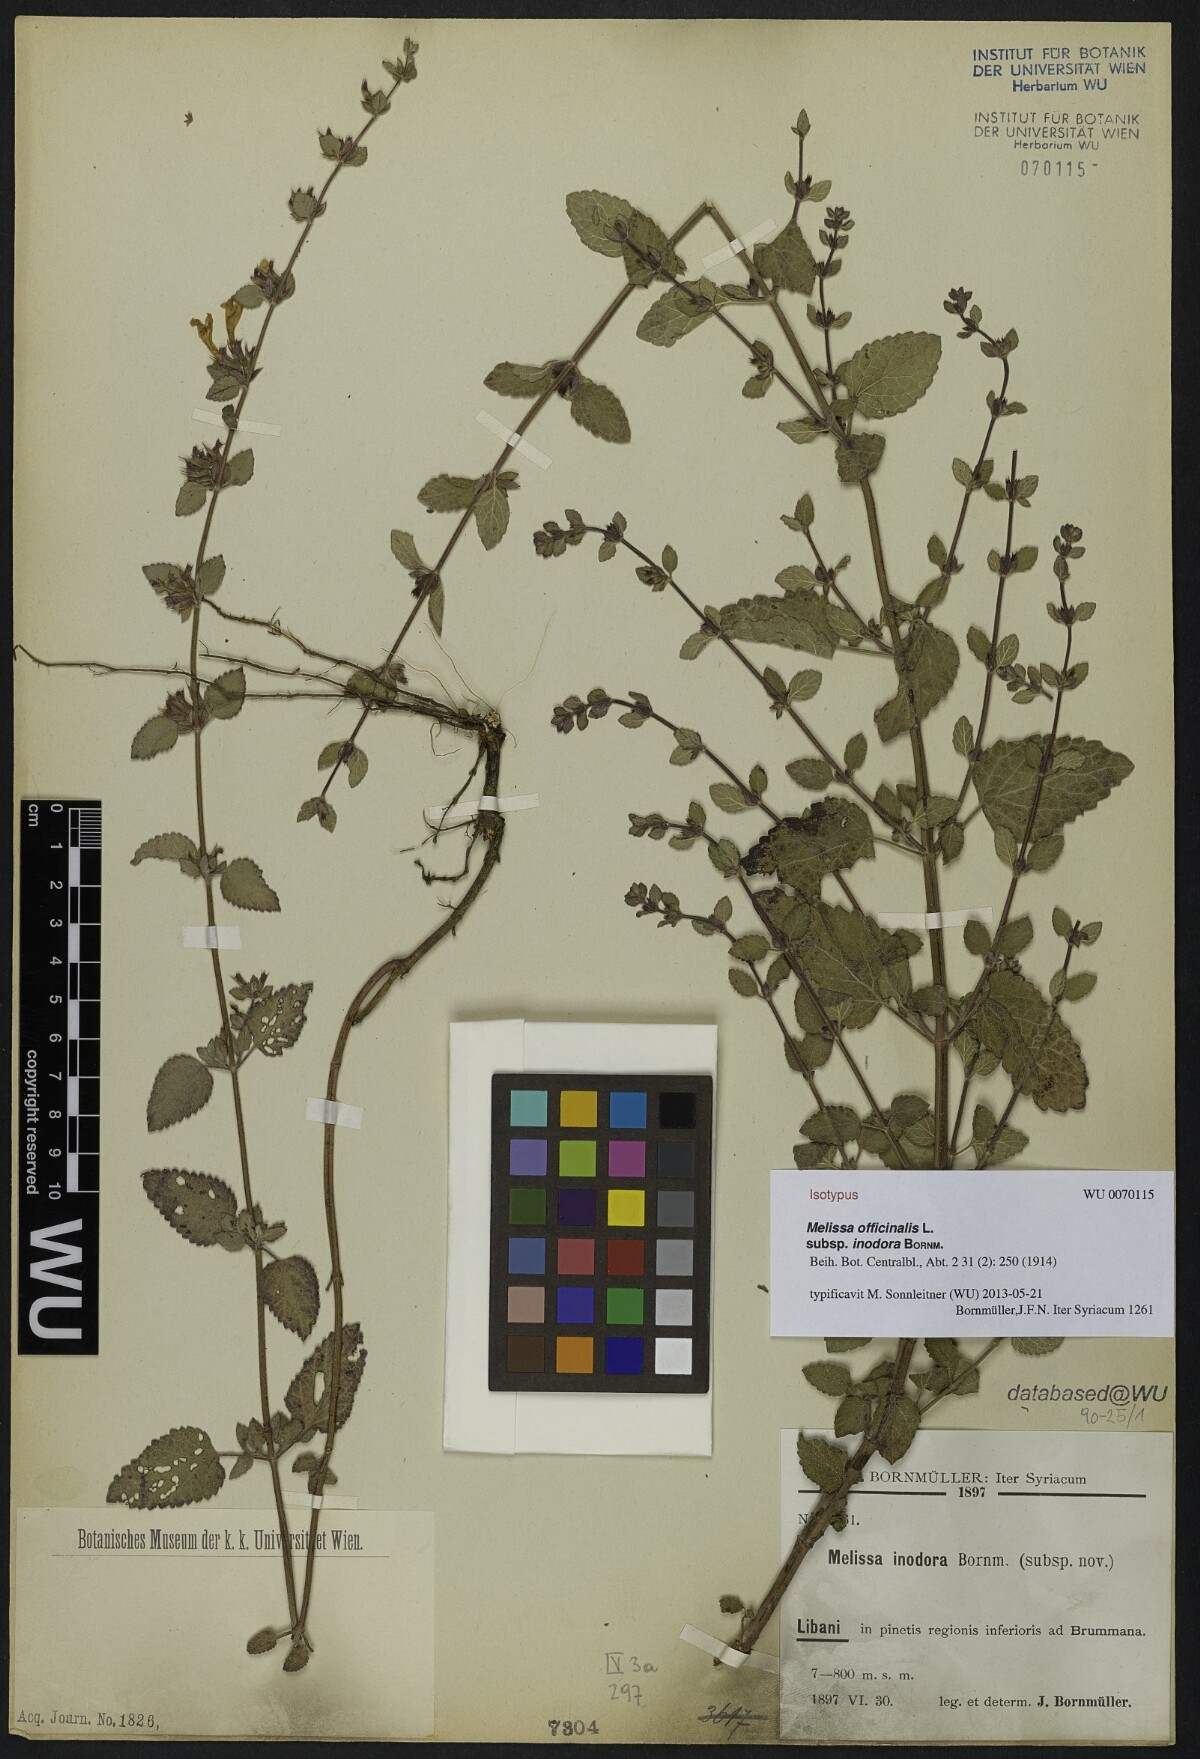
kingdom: Plantae
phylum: Tracheophyta
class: Magnoliopsida
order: Lamiales
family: Lamiaceae
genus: Melissa
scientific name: Melissa officinalis
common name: Balm
